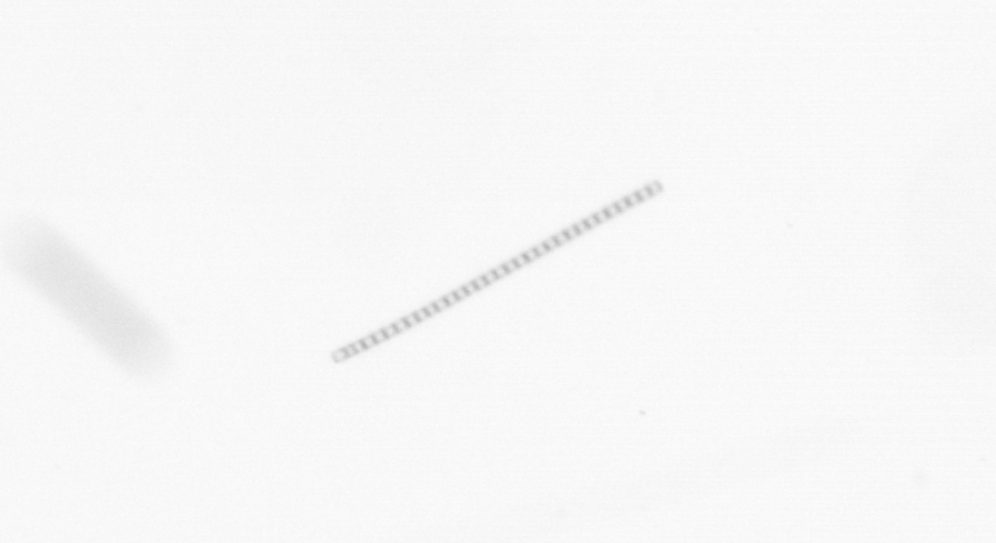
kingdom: Chromista
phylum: Ochrophyta
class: Bacillariophyceae
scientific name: Bacillariophyceae
